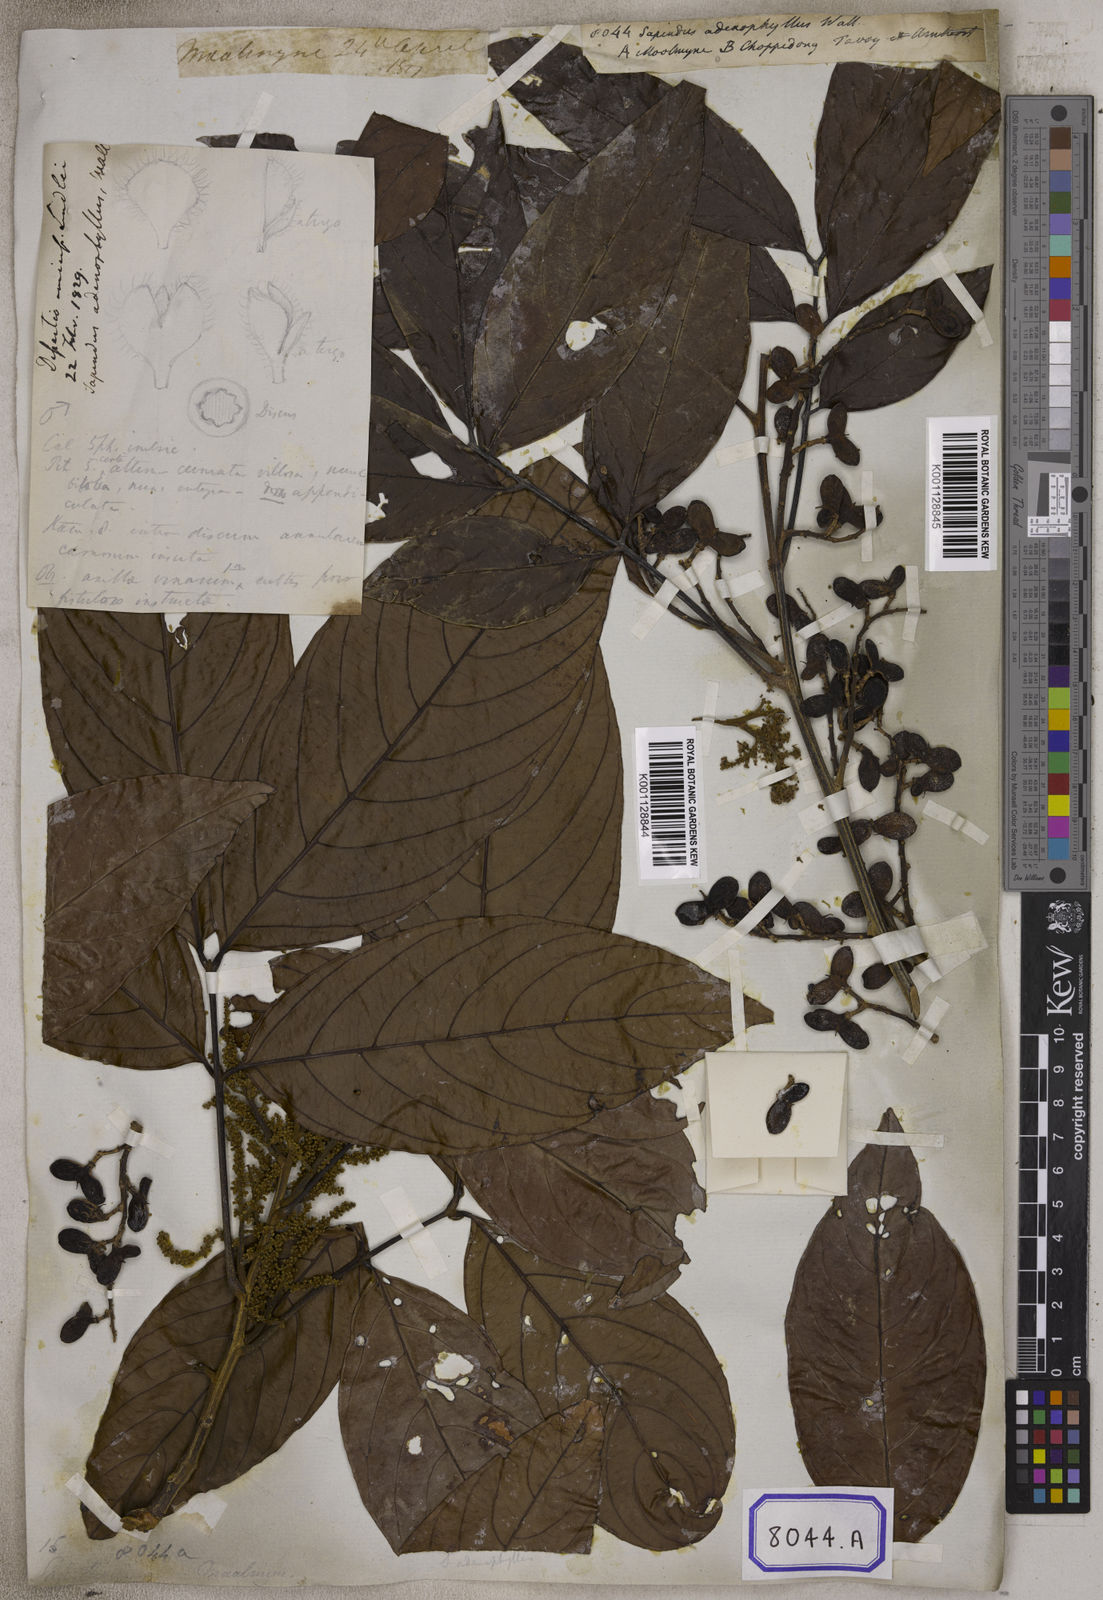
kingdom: Plantae
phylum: Tracheophyta
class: Magnoliopsida
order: Sapindales
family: Sapindaceae
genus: Arytera
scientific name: Arytera litoralis
